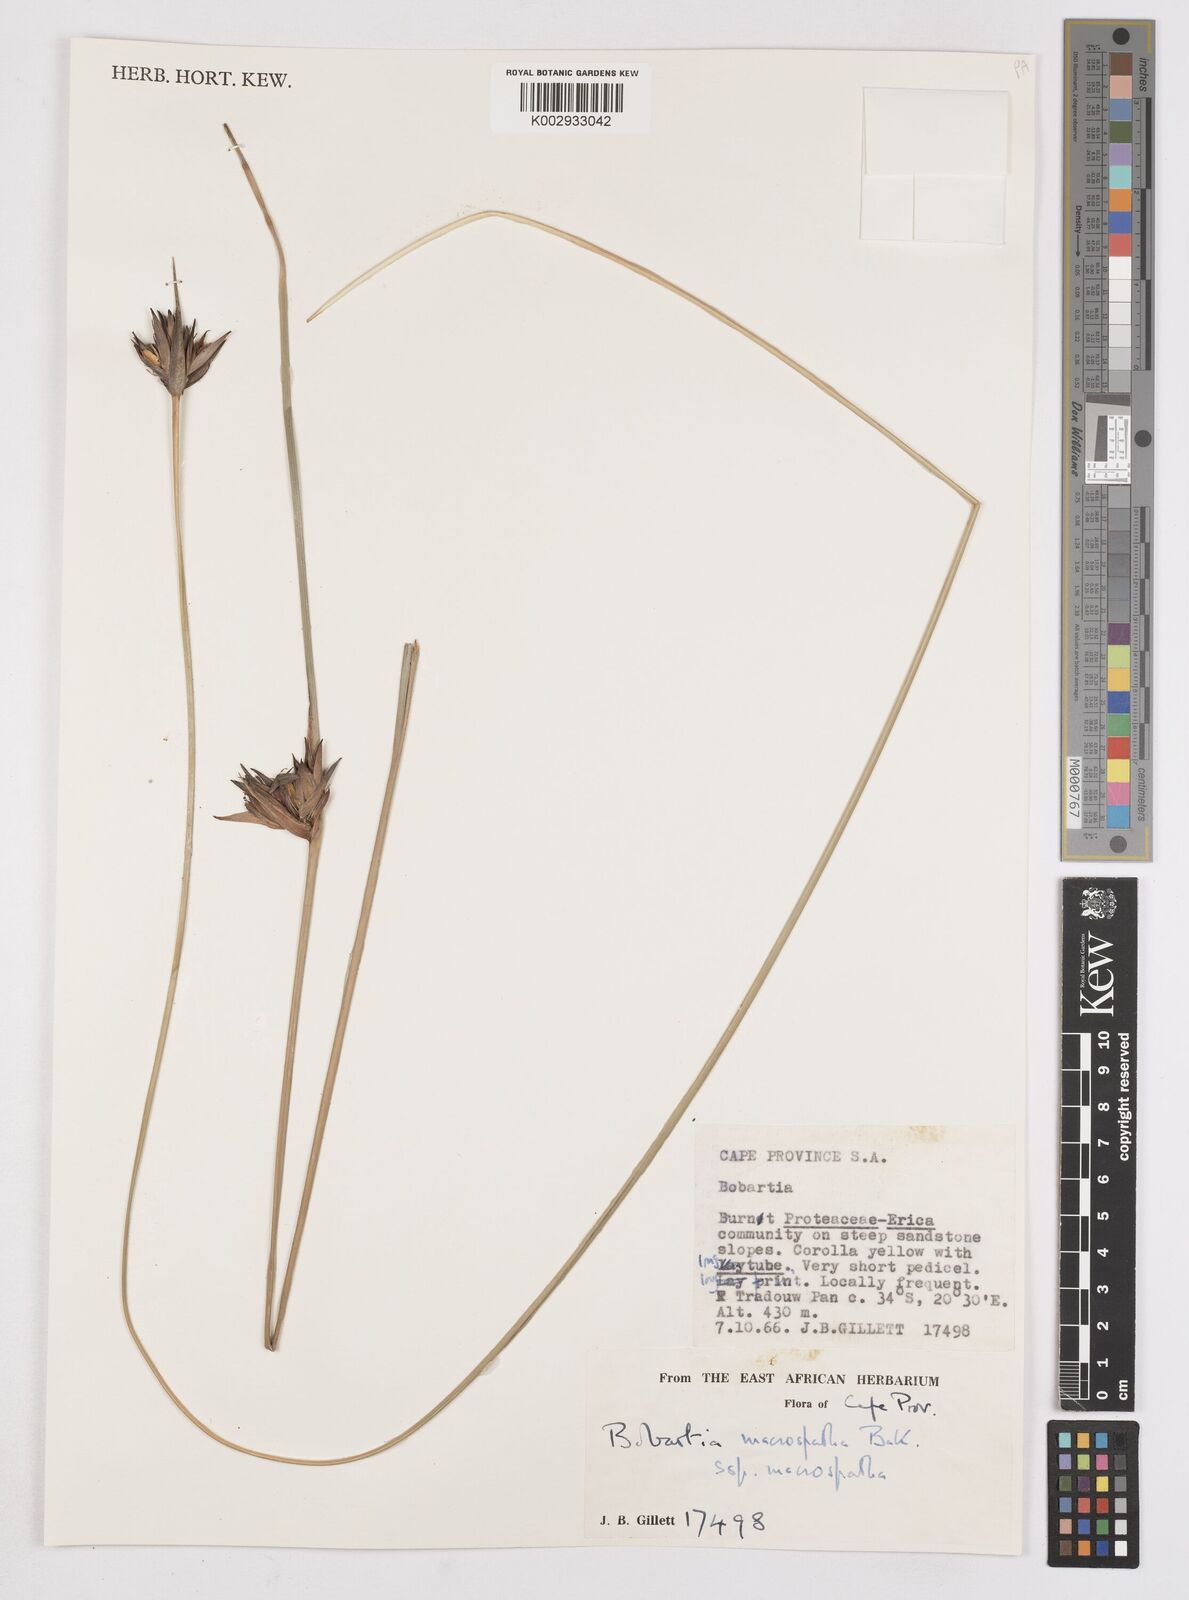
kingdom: Plantae
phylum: Tracheophyta
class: Liliopsida
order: Asparagales
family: Iridaceae
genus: Bobartia
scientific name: Bobartia macrospatha
